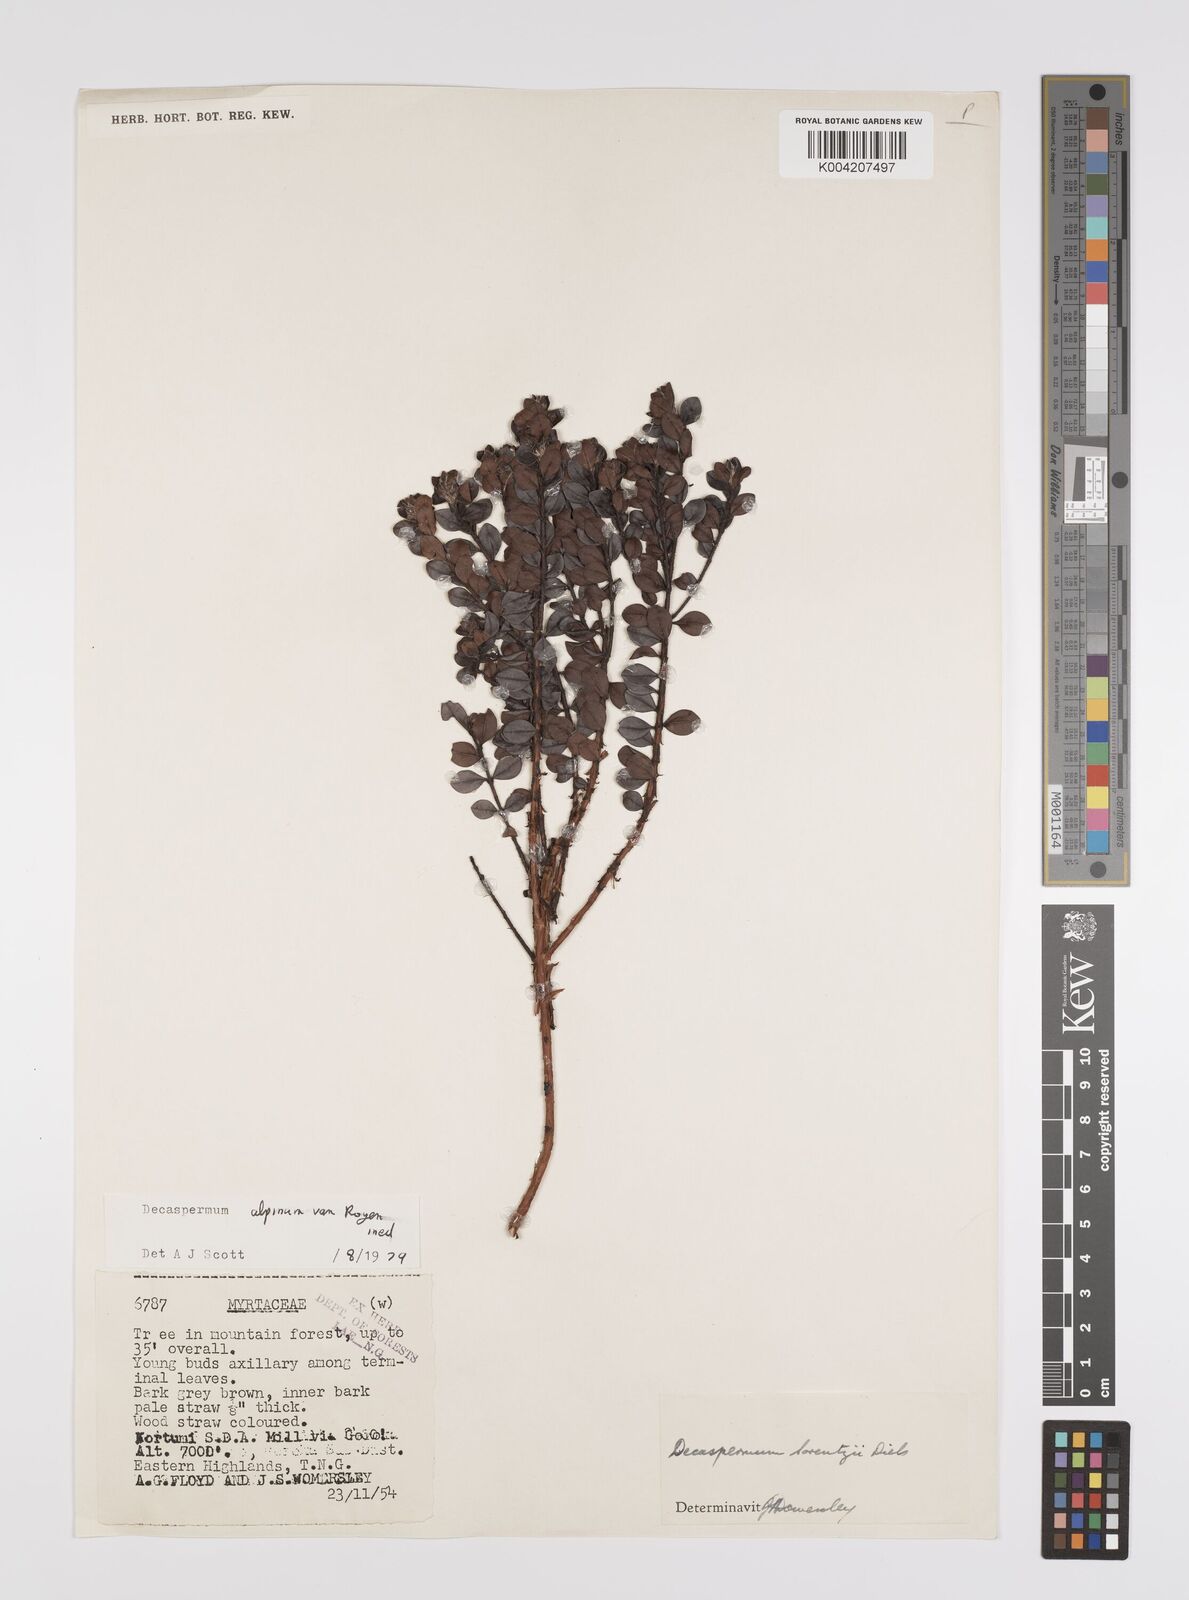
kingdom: Plantae
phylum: Tracheophyta
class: Magnoliopsida
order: Myrtales
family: Myrtaceae
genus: Decaspermum
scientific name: Decaspermum alpinum
